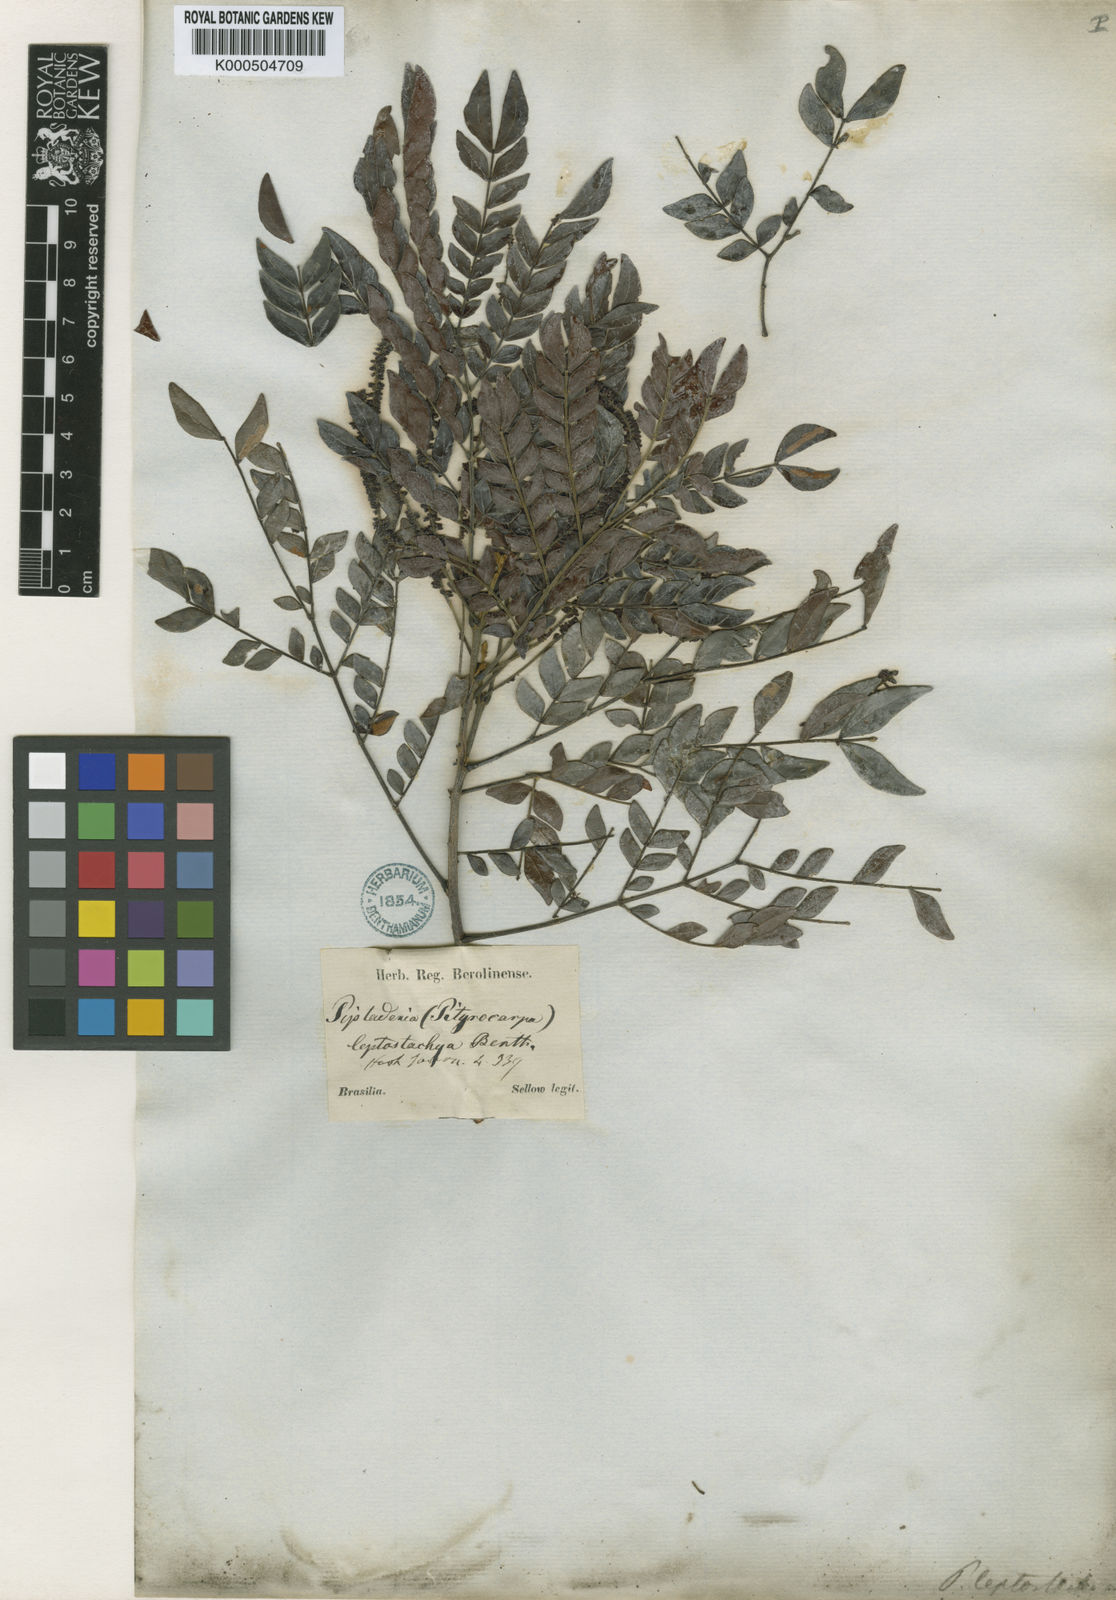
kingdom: Plantae
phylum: Tracheophyta
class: Magnoliopsida
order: Fabales
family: Fabaceae
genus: Pseudopiptadenia
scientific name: Pseudopiptadenia leptostachya
